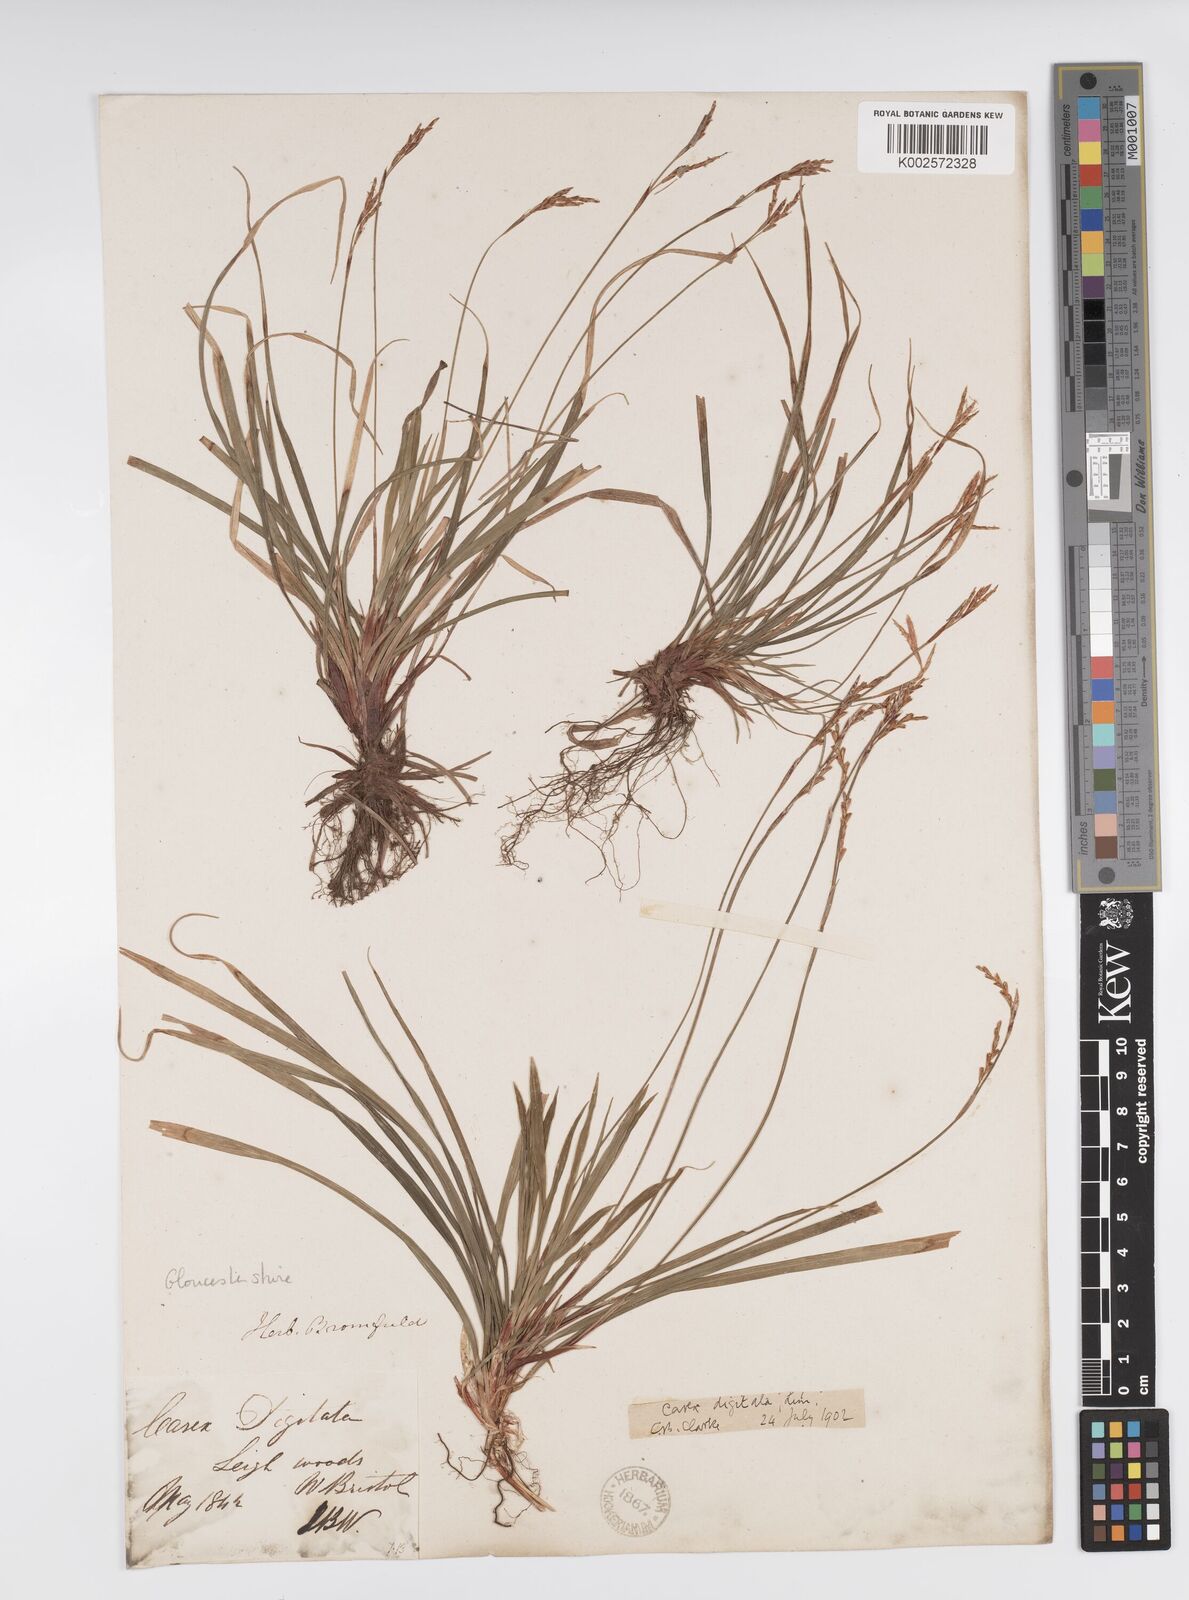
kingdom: Plantae
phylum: Tracheophyta
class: Liliopsida
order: Poales
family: Cyperaceae
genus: Carex
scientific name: Carex digitata
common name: Fingered sedge
